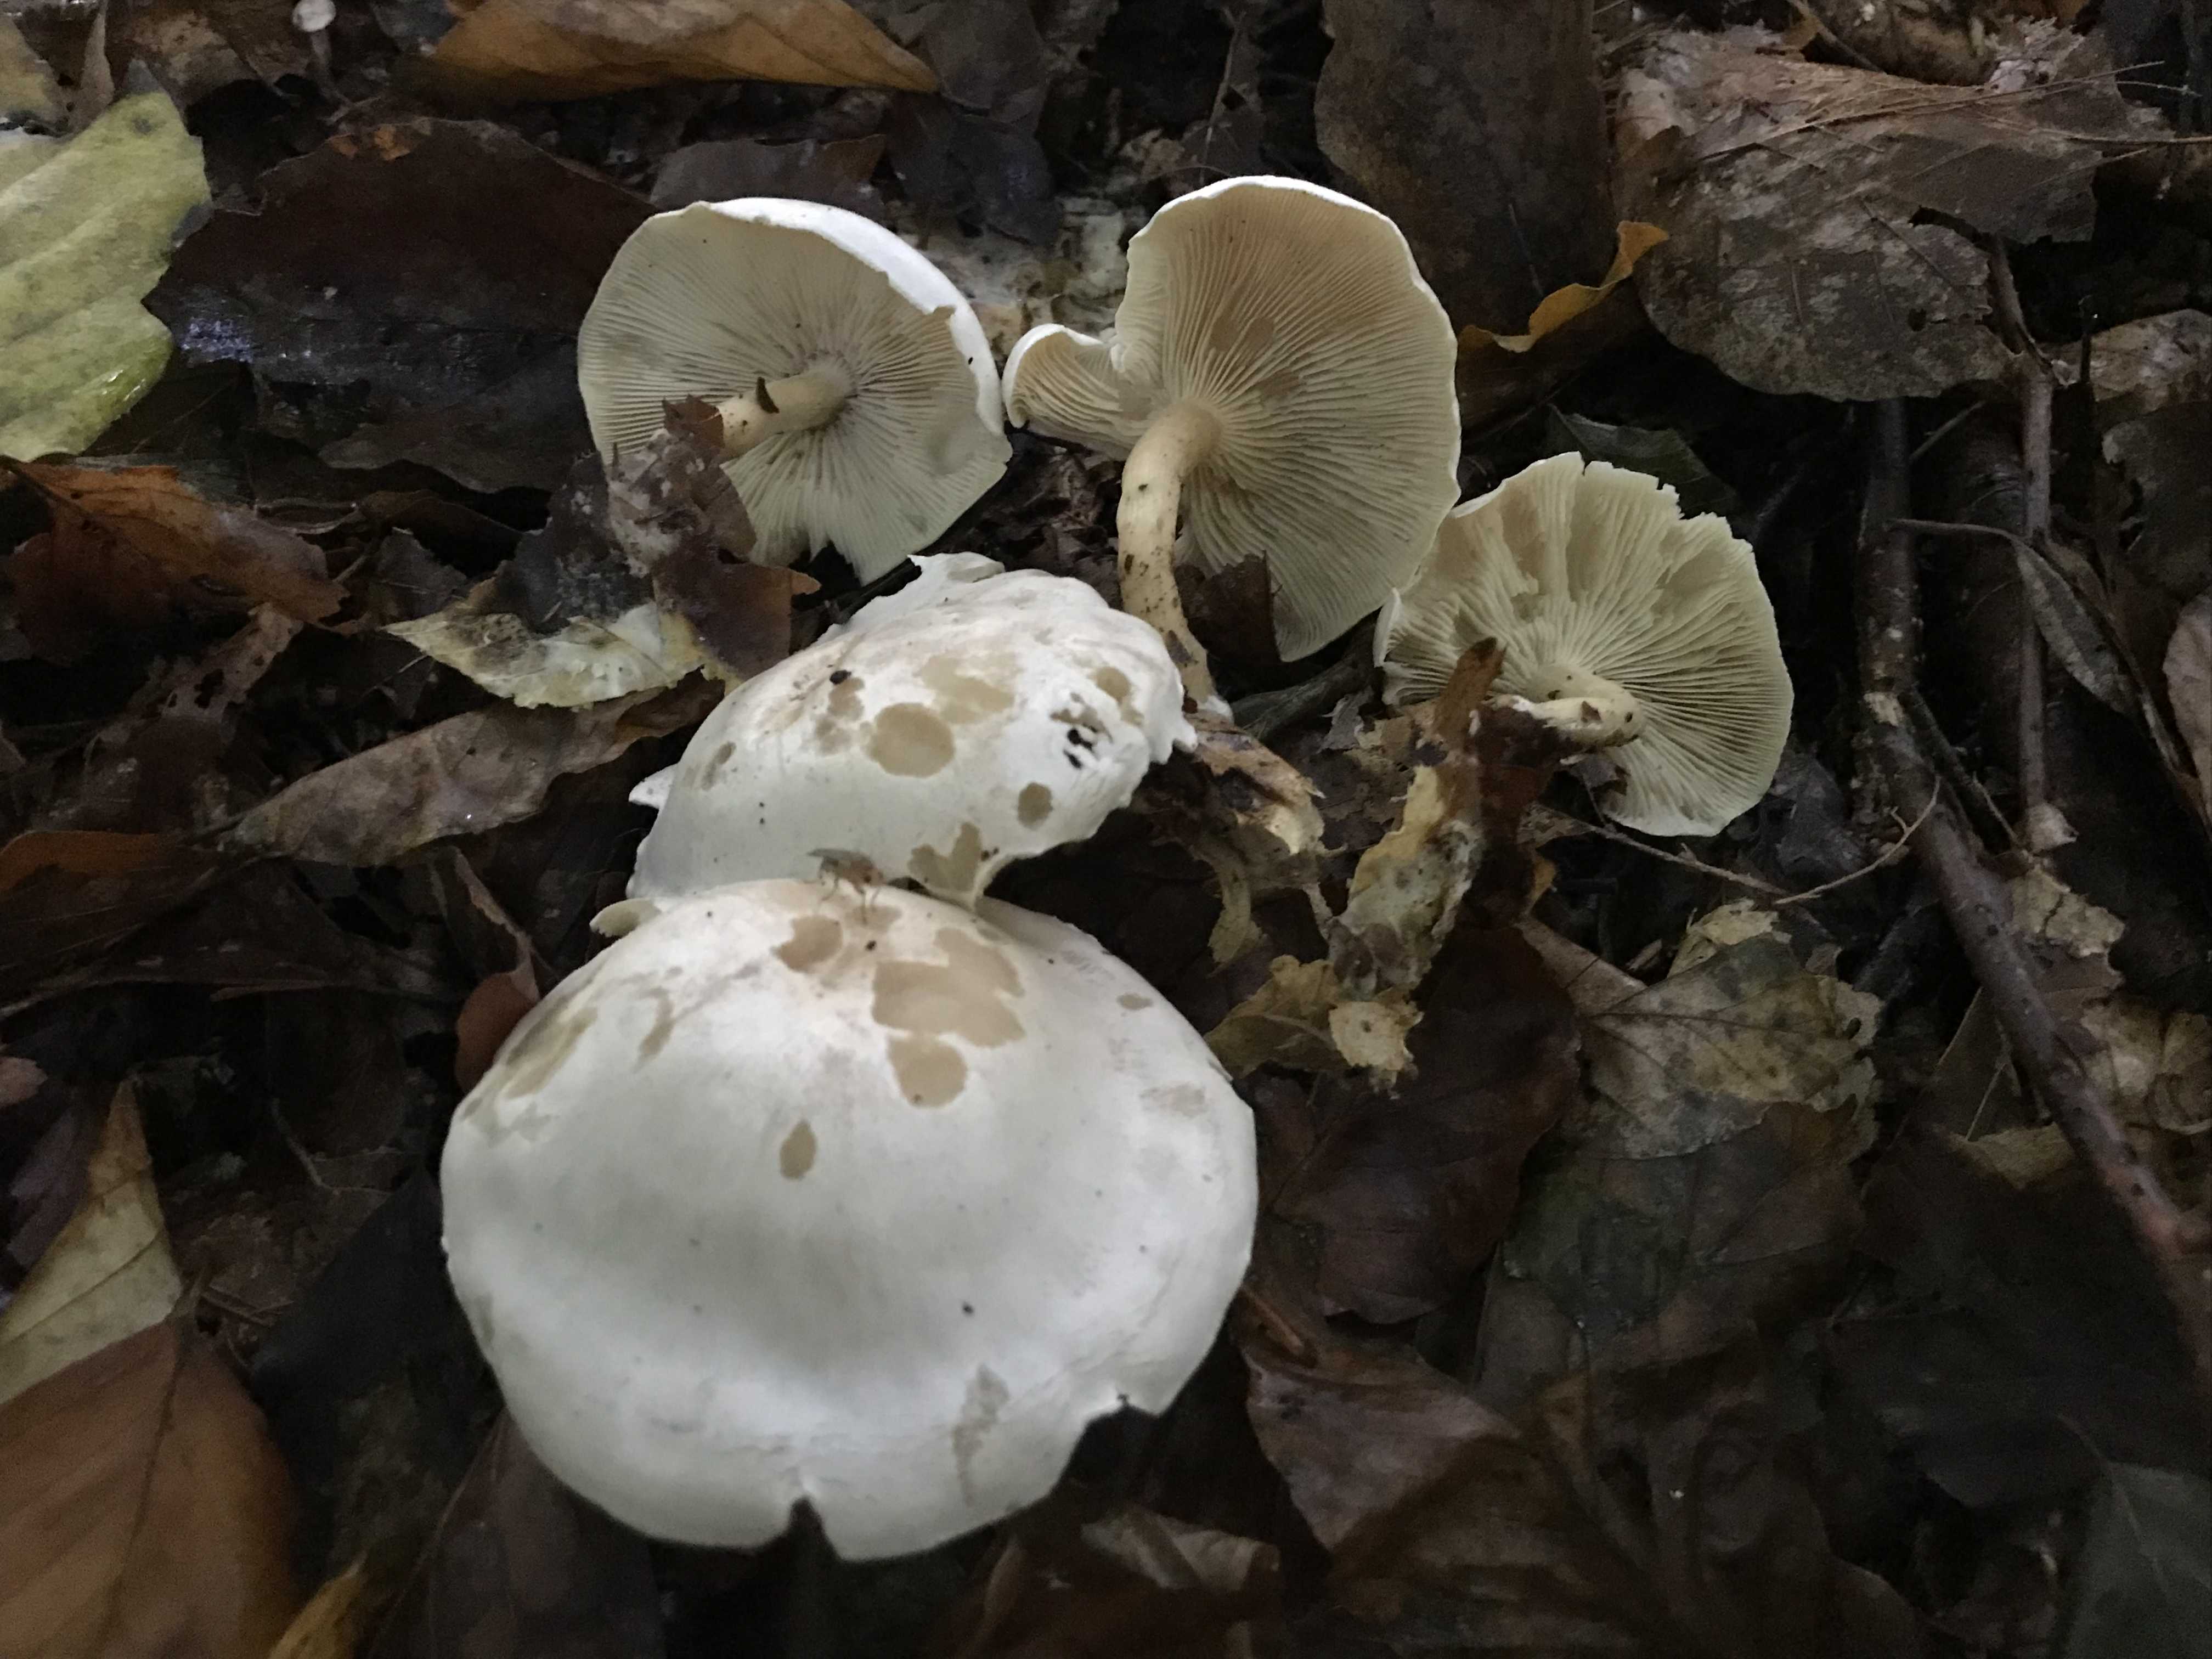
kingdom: Fungi
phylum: Basidiomycota
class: Agaricomycetes
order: Agaricales
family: Tricholomataceae
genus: Clitocybe
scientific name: Clitocybe phyllophila
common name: løv-tragthat
